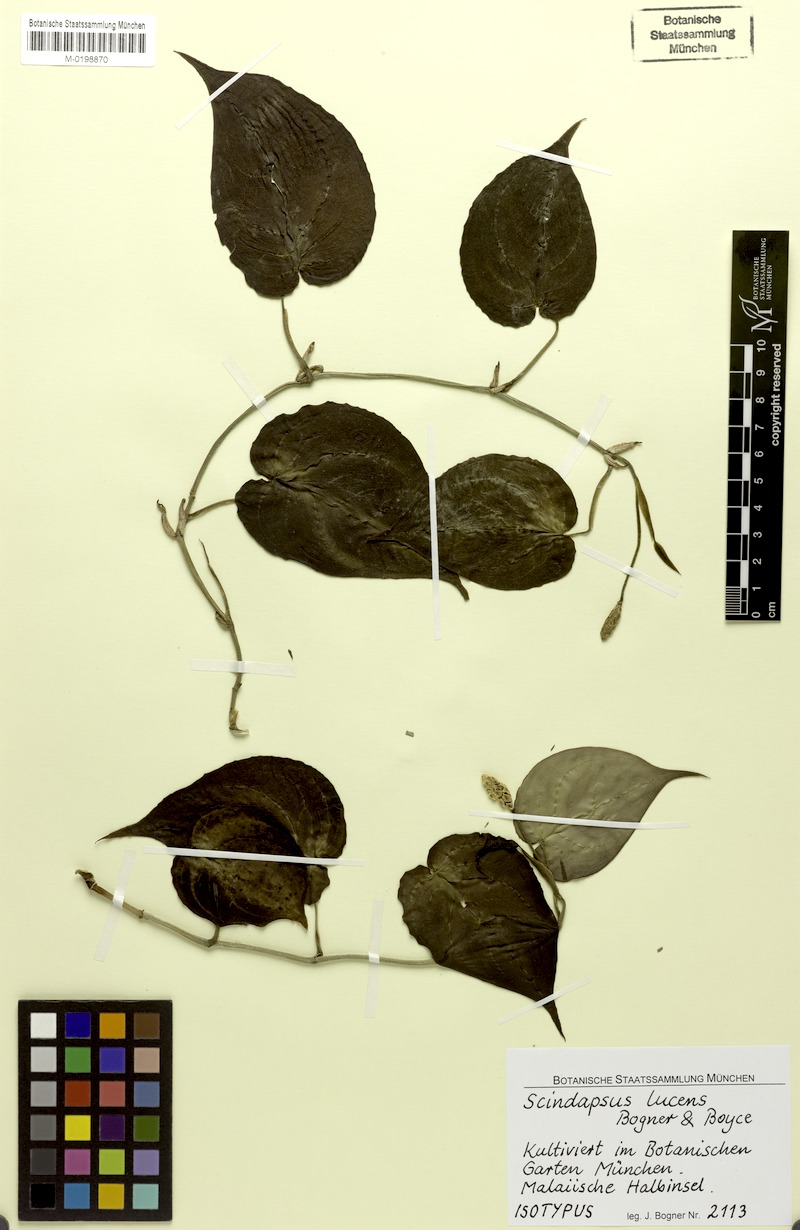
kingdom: Plantae
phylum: Tracheophyta
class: Liliopsida
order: Alismatales
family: Araceae
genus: Scindapsus
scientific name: Scindapsus lucens
